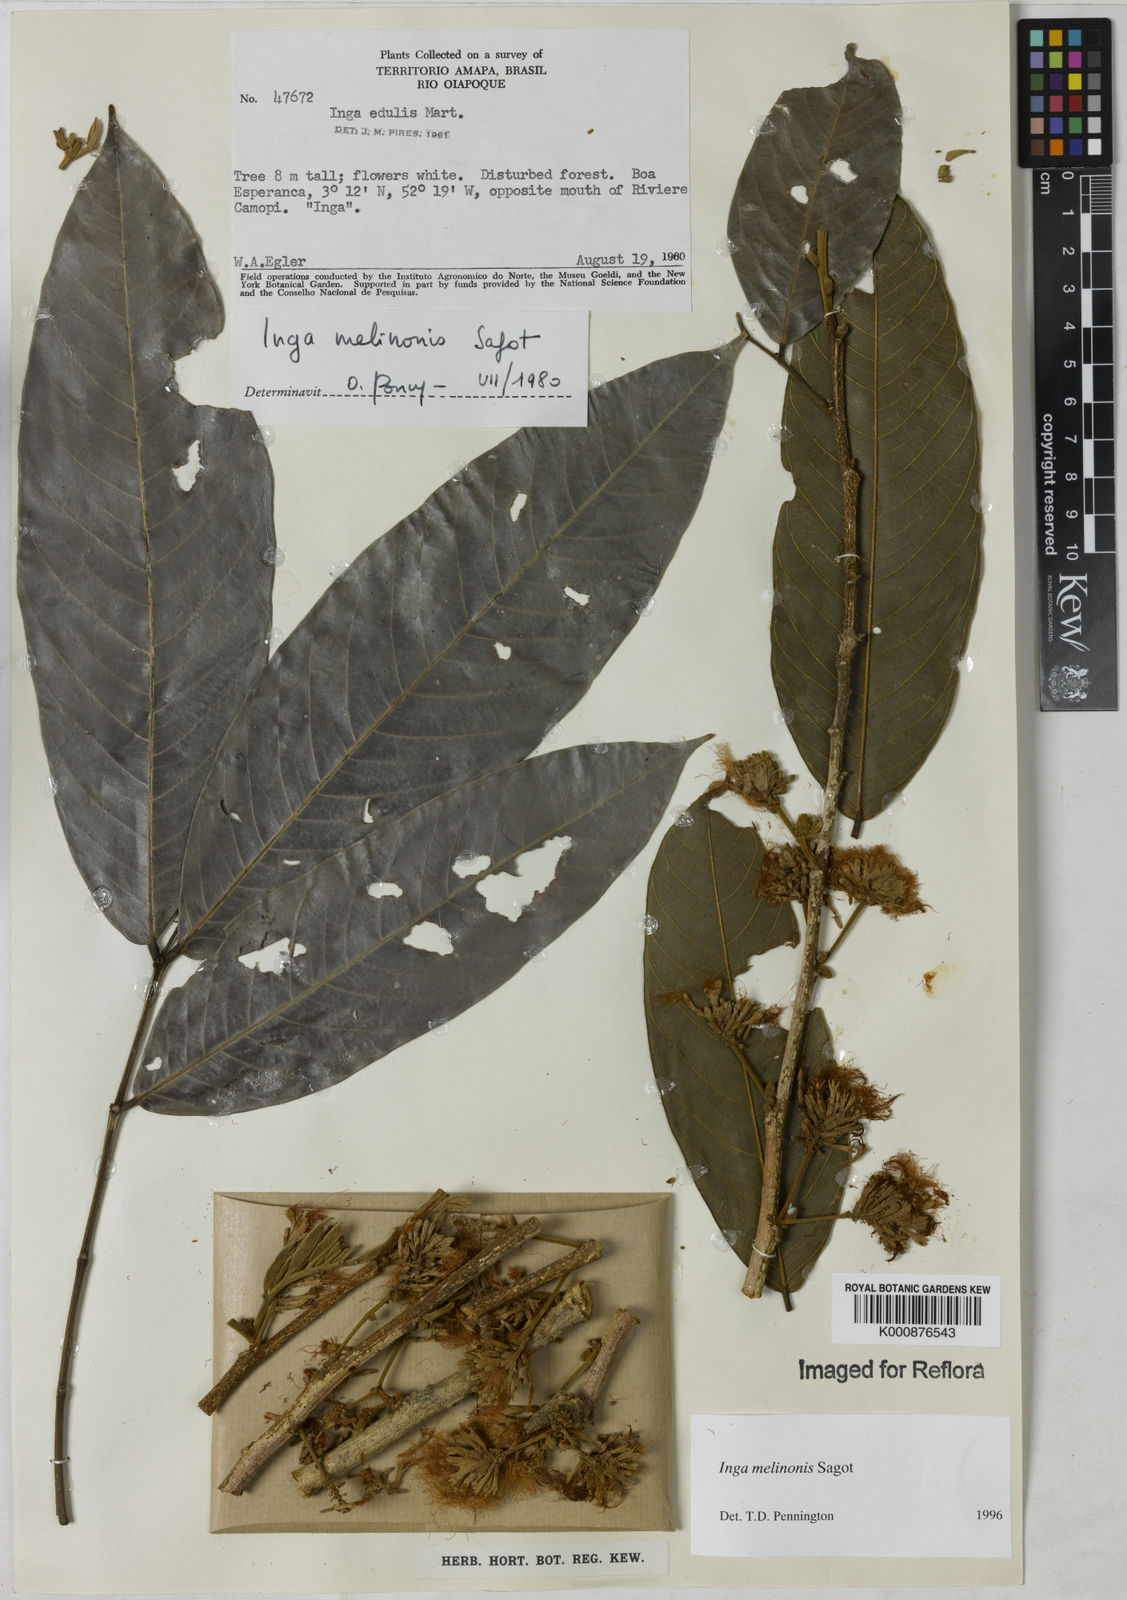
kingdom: Plantae
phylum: Tracheophyta
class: Magnoliopsida
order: Fabales
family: Fabaceae
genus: Inga
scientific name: Inga ruiziana
